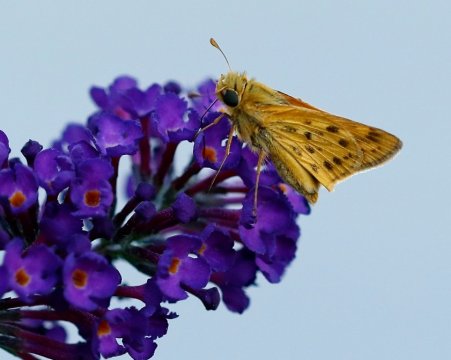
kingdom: Animalia
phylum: Arthropoda
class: Insecta
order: Lepidoptera
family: Hesperiidae
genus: Hylephila
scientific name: Hylephila phyleus
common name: Fiery Skipper
